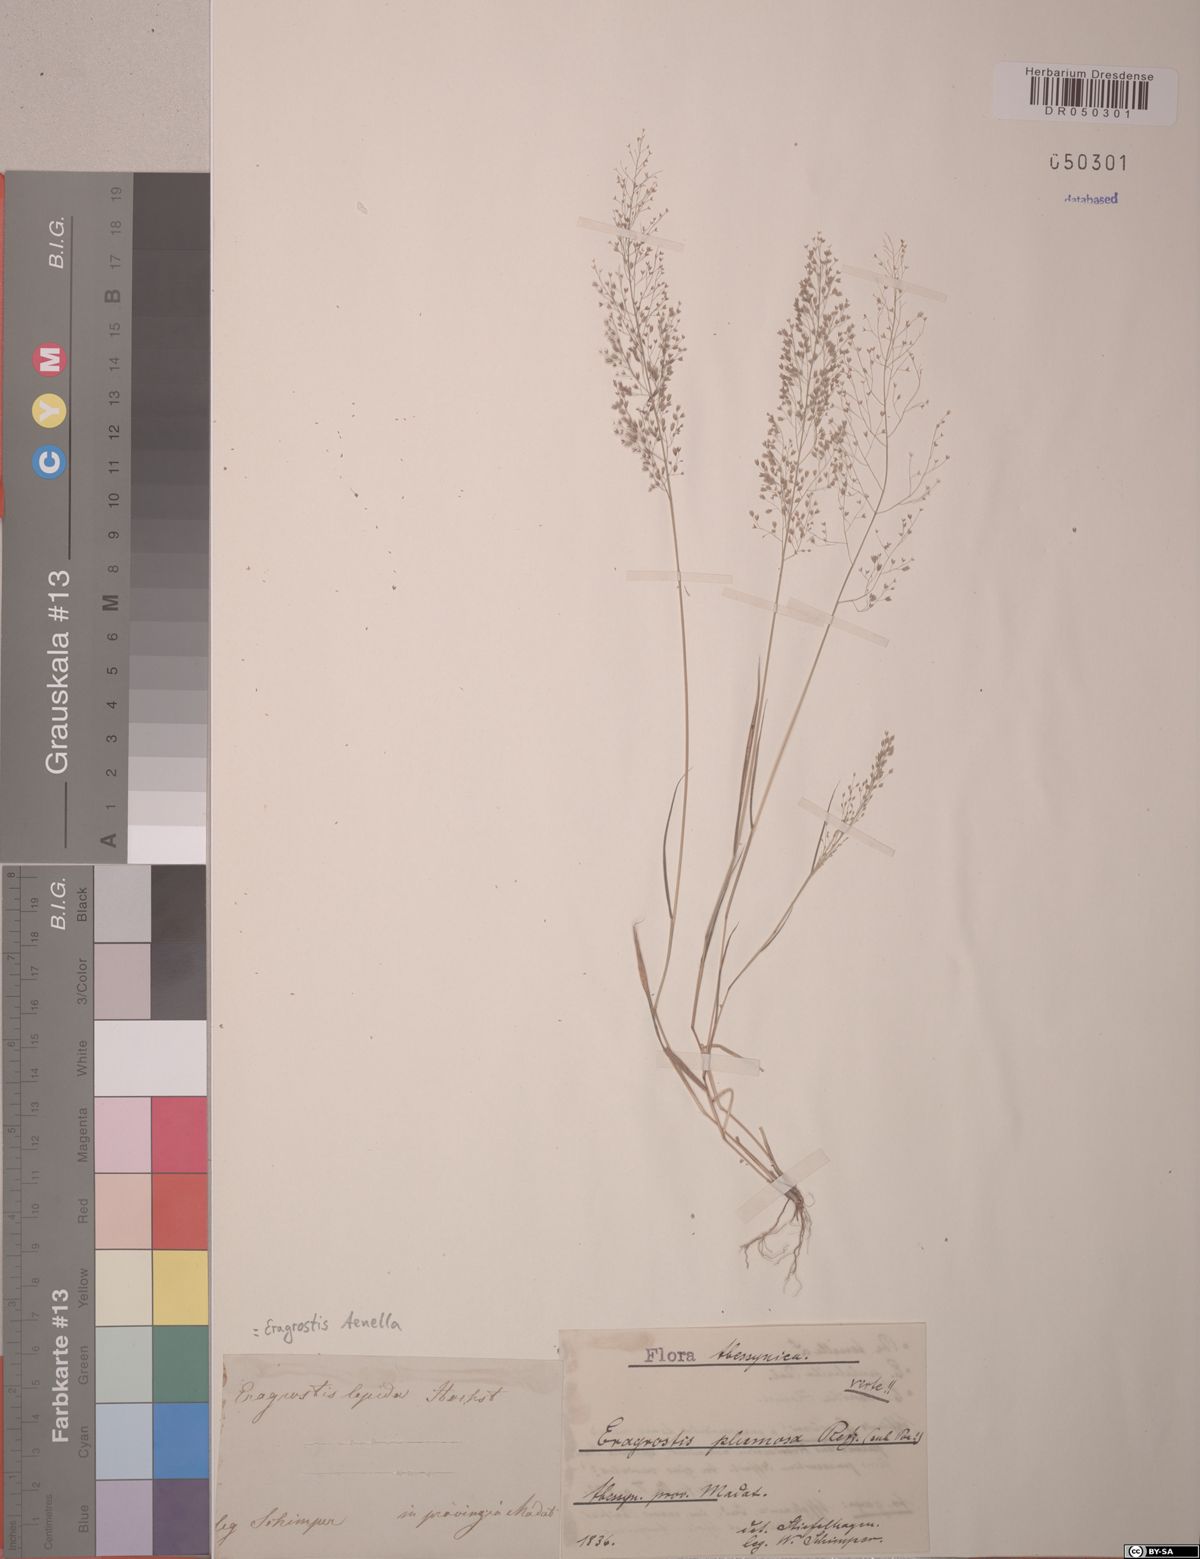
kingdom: Plantae
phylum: Tracheophyta
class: Liliopsida
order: Poales
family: Poaceae
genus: Eragrostis
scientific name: Eragrostis tenella
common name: Japanese lovegrass
